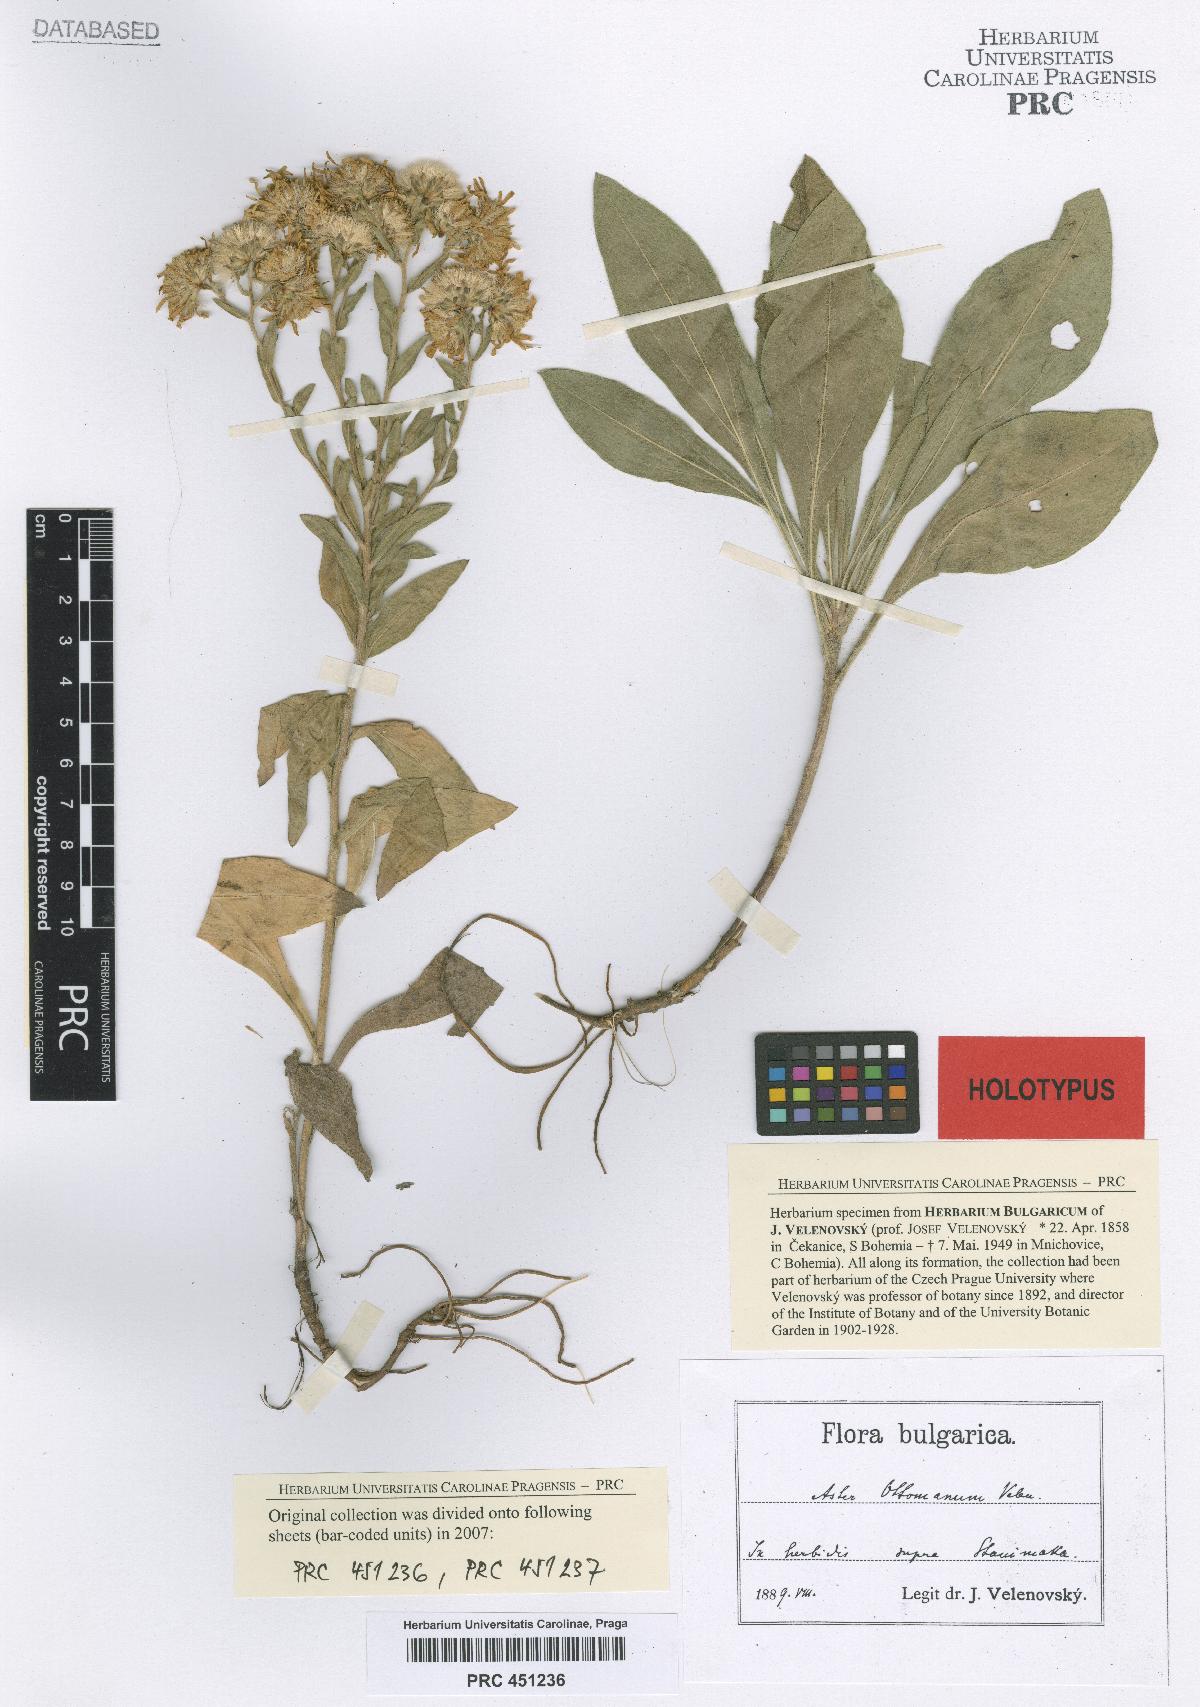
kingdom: Plantae
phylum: Tracheophyta
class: Magnoliopsida
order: Asterales
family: Asteraceae
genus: Aster
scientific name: Aster amellus
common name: European michaelmas daisy
